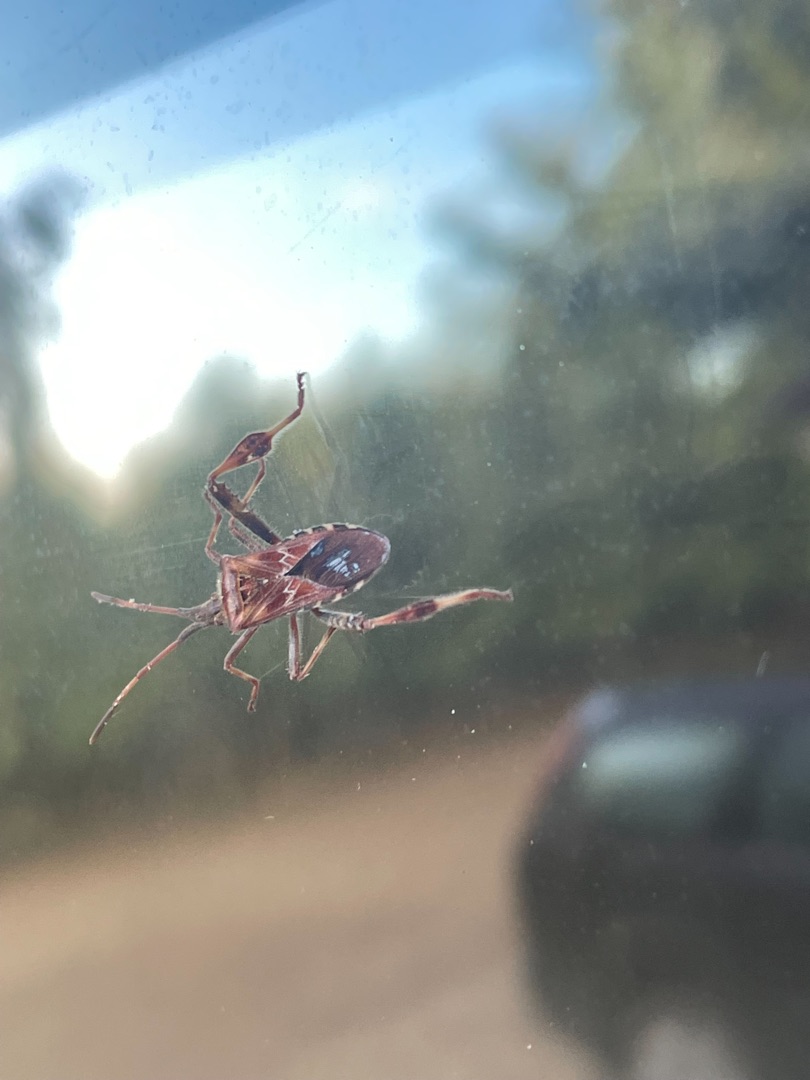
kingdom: Animalia
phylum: Arthropoda
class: Insecta
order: Hemiptera
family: Coreidae
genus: Leptoglossus
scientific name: Leptoglossus occidentalis
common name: Amerikansk fyrretæge
